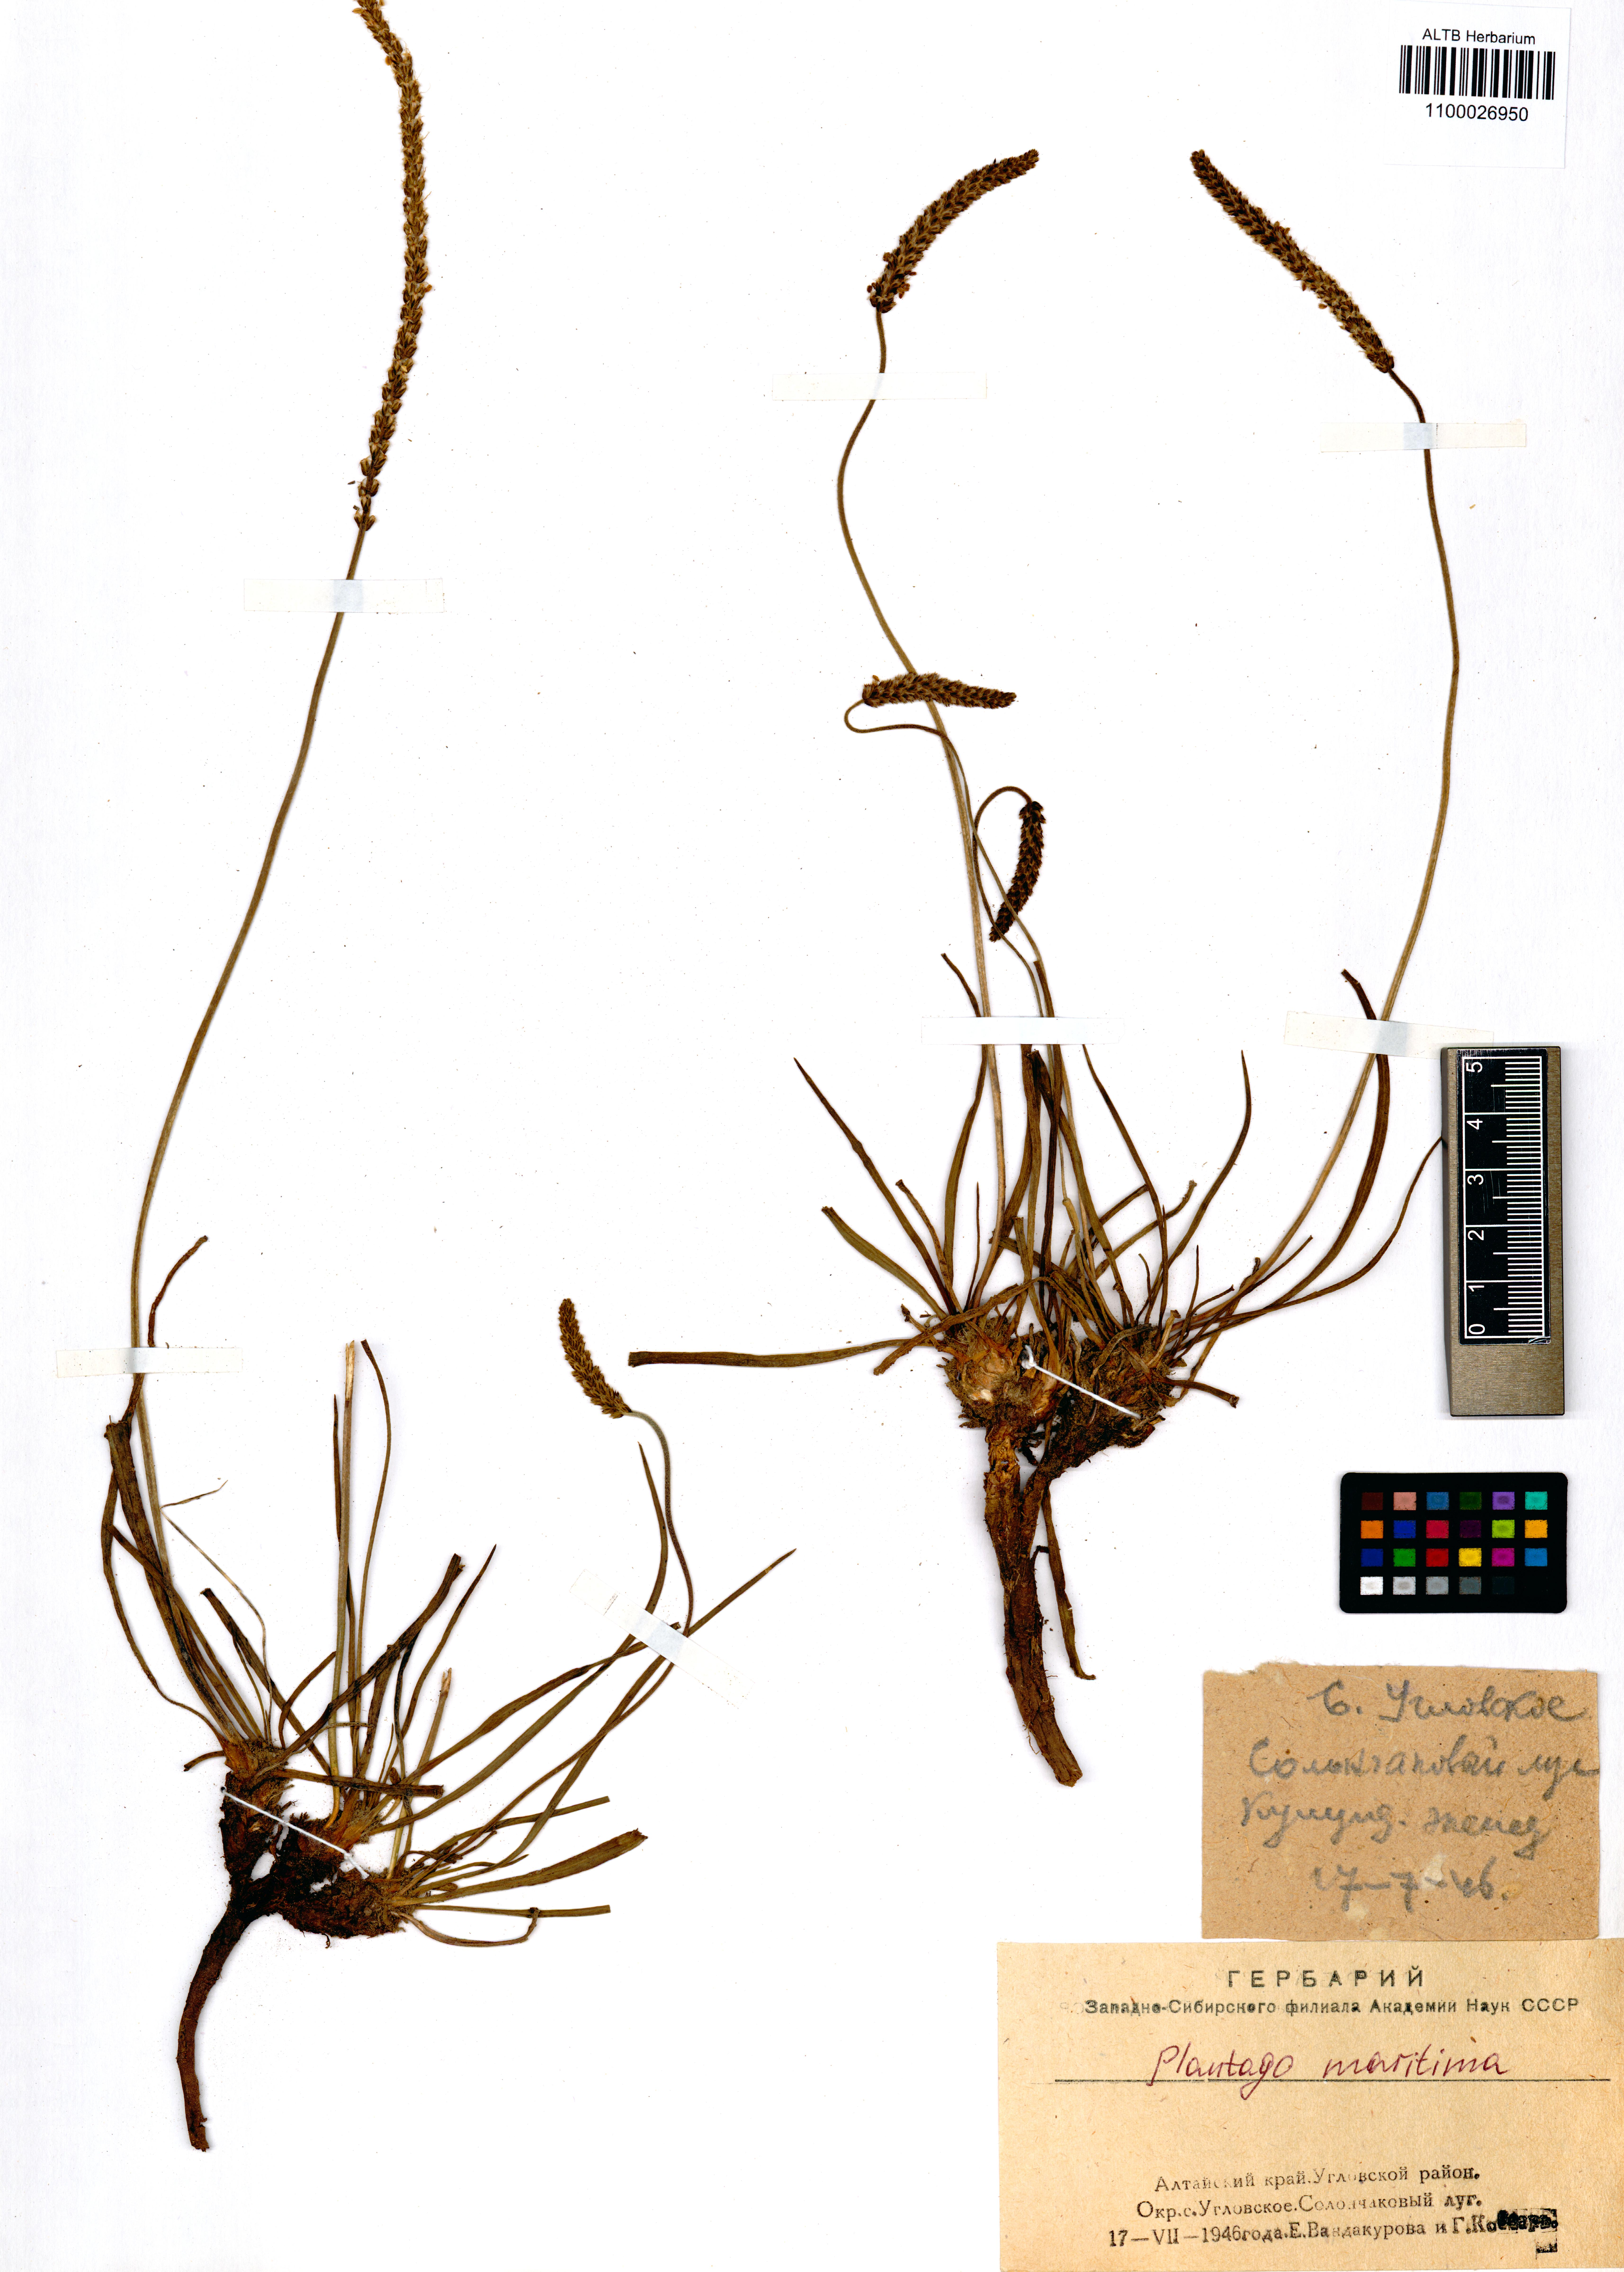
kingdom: Plantae
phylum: Tracheophyta
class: Magnoliopsida
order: Lamiales
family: Plantaginaceae
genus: Plantago
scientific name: Plantago maritima
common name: Sea plantain
